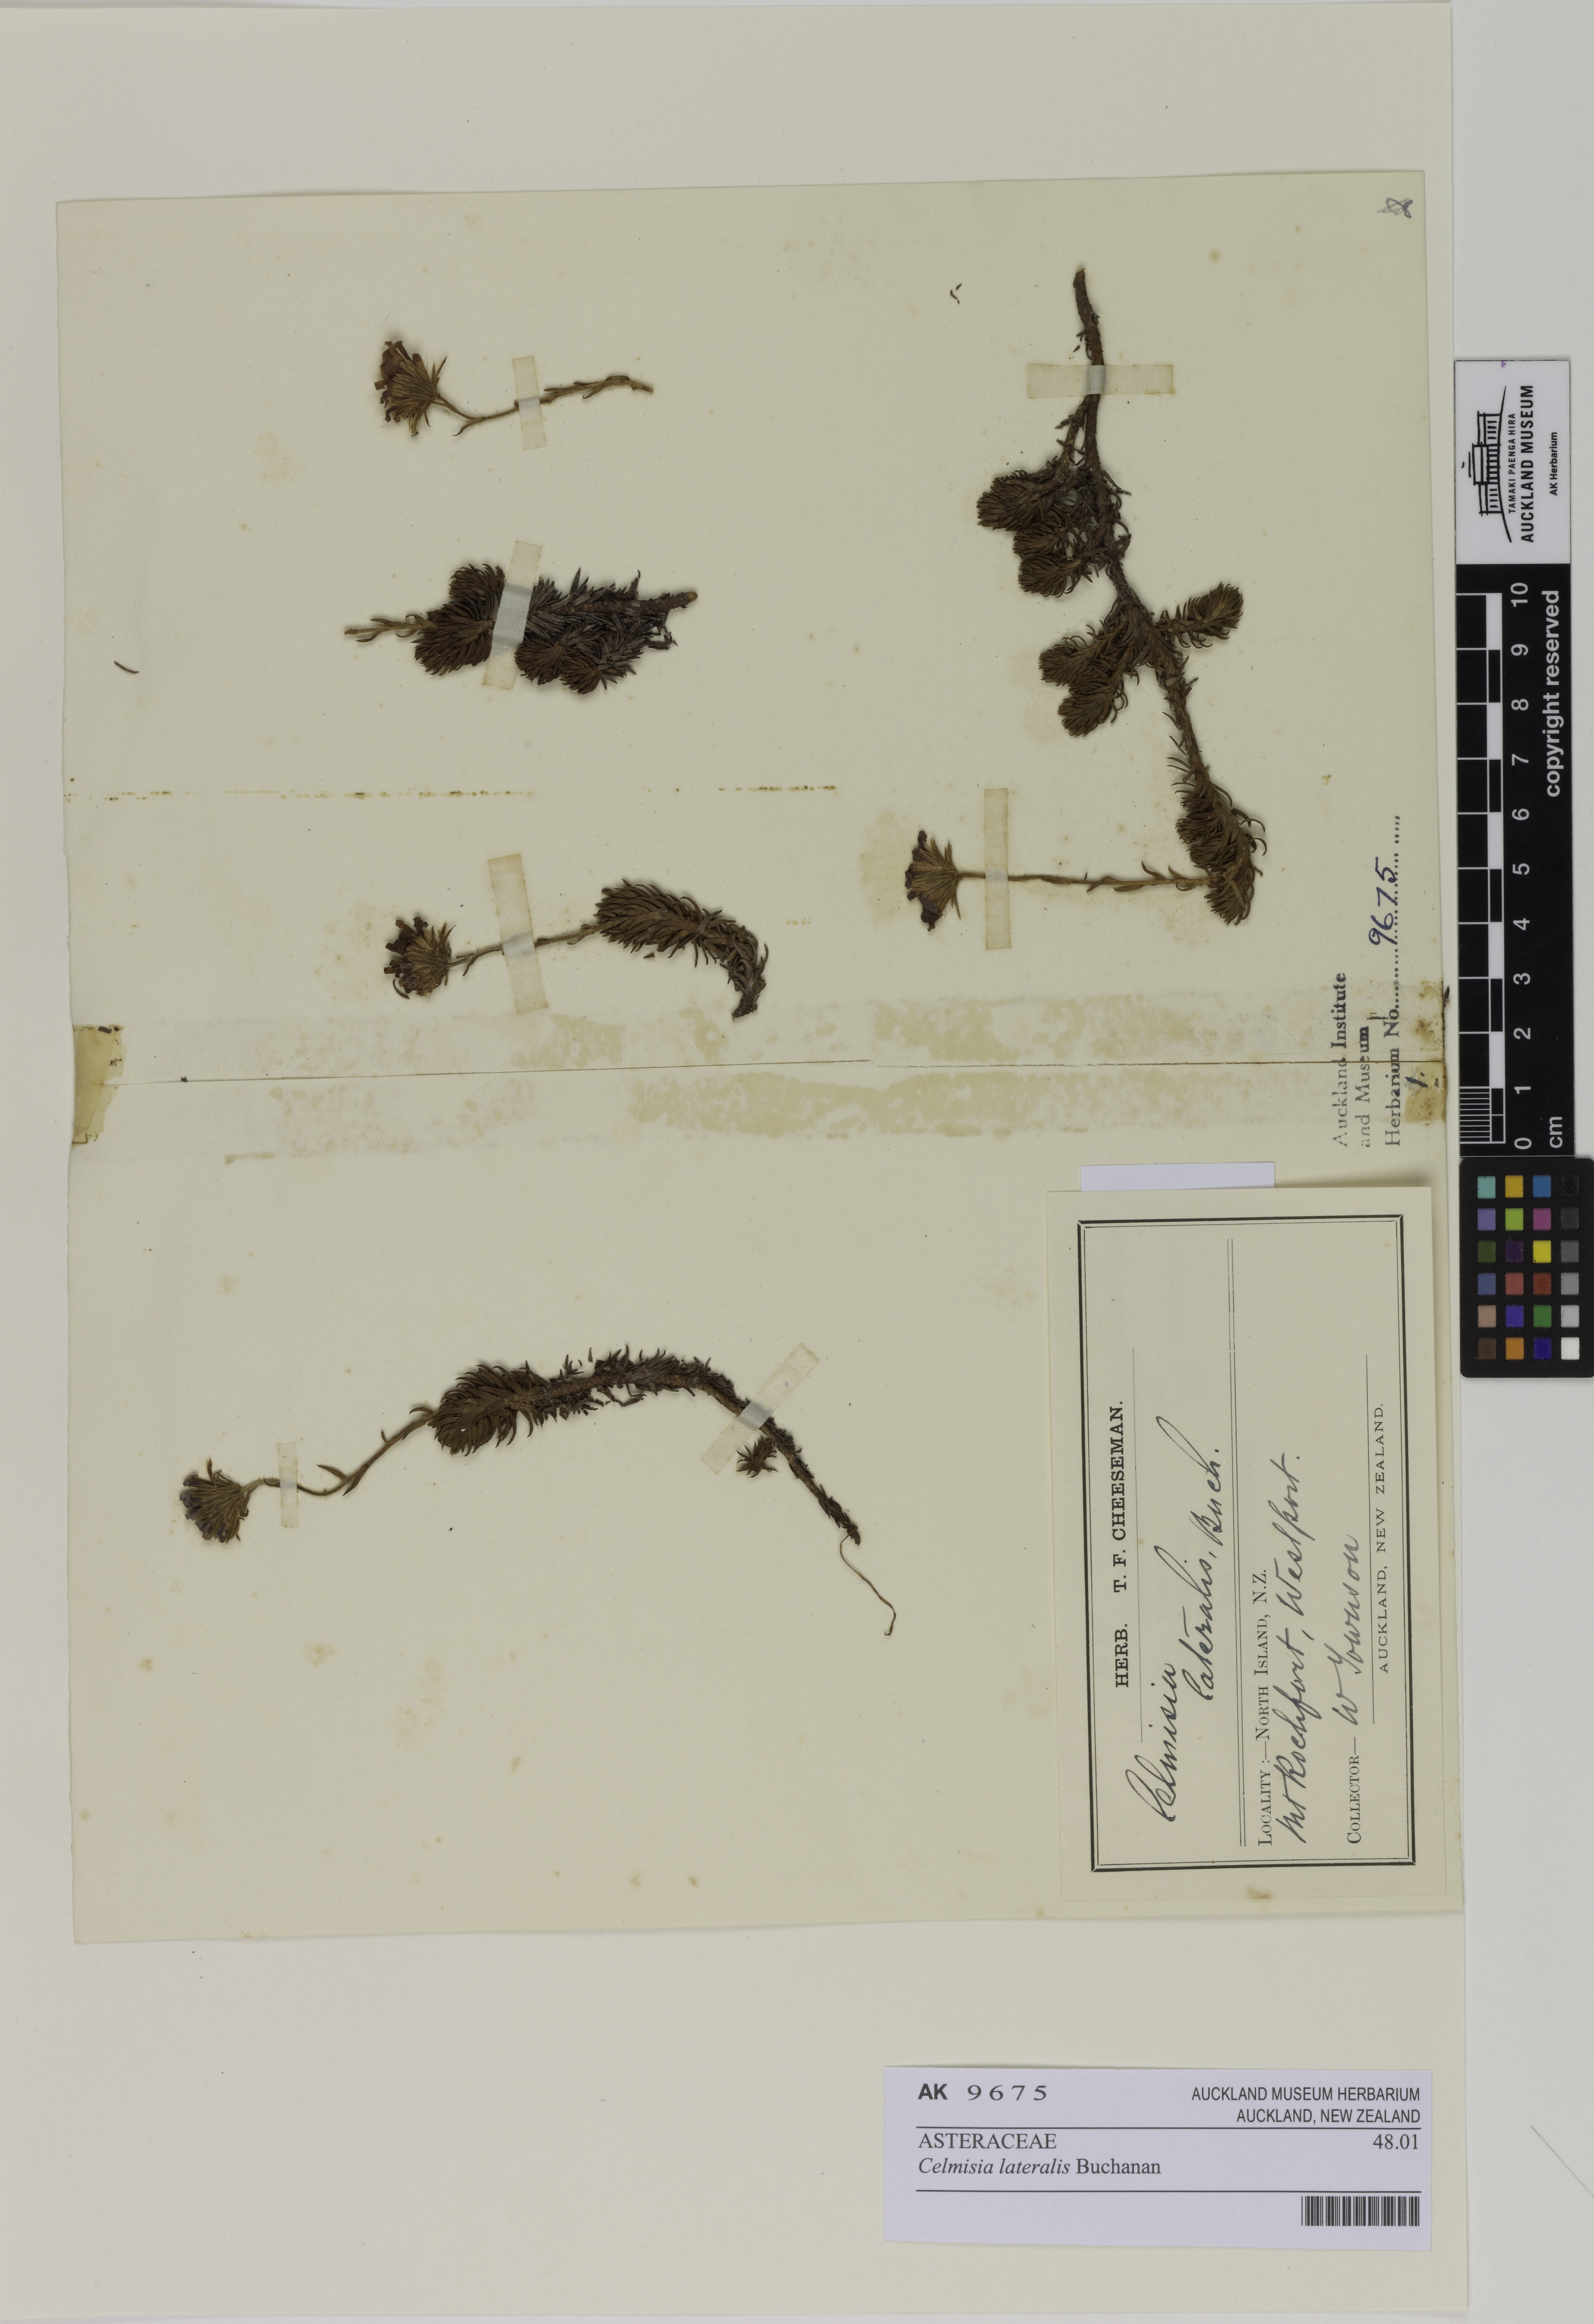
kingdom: Plantae
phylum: Tracheophyta
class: Magnoliopsida
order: Asterales
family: Asteraceae
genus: Celmisia
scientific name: Celmisia lateralis
